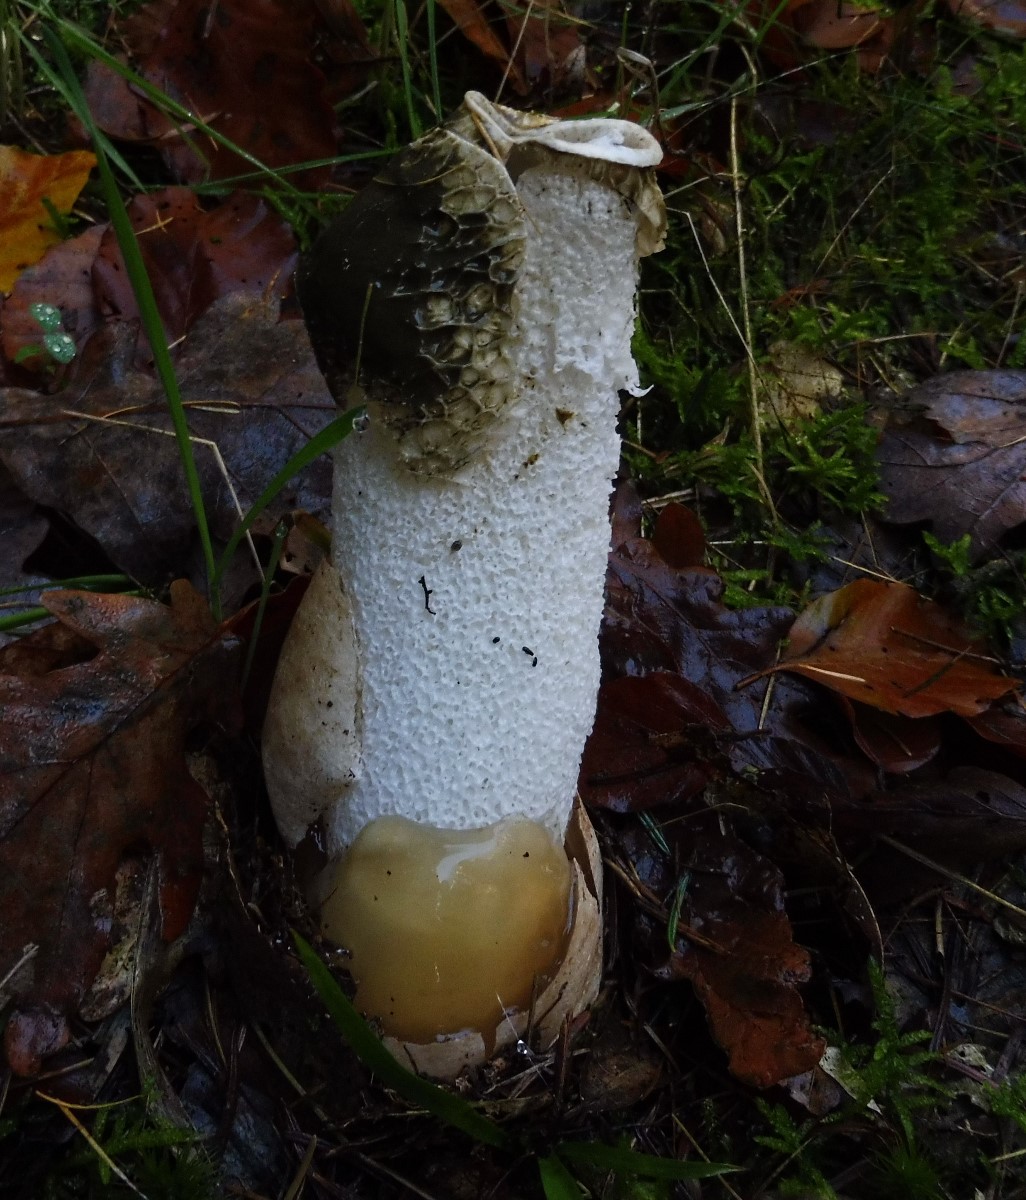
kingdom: Fungi
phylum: Basidiomycota
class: Agaricomycetes
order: Phallales
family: Phallaceae
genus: Phallus
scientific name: Phallus impudicus
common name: almindelig stinksvamp
